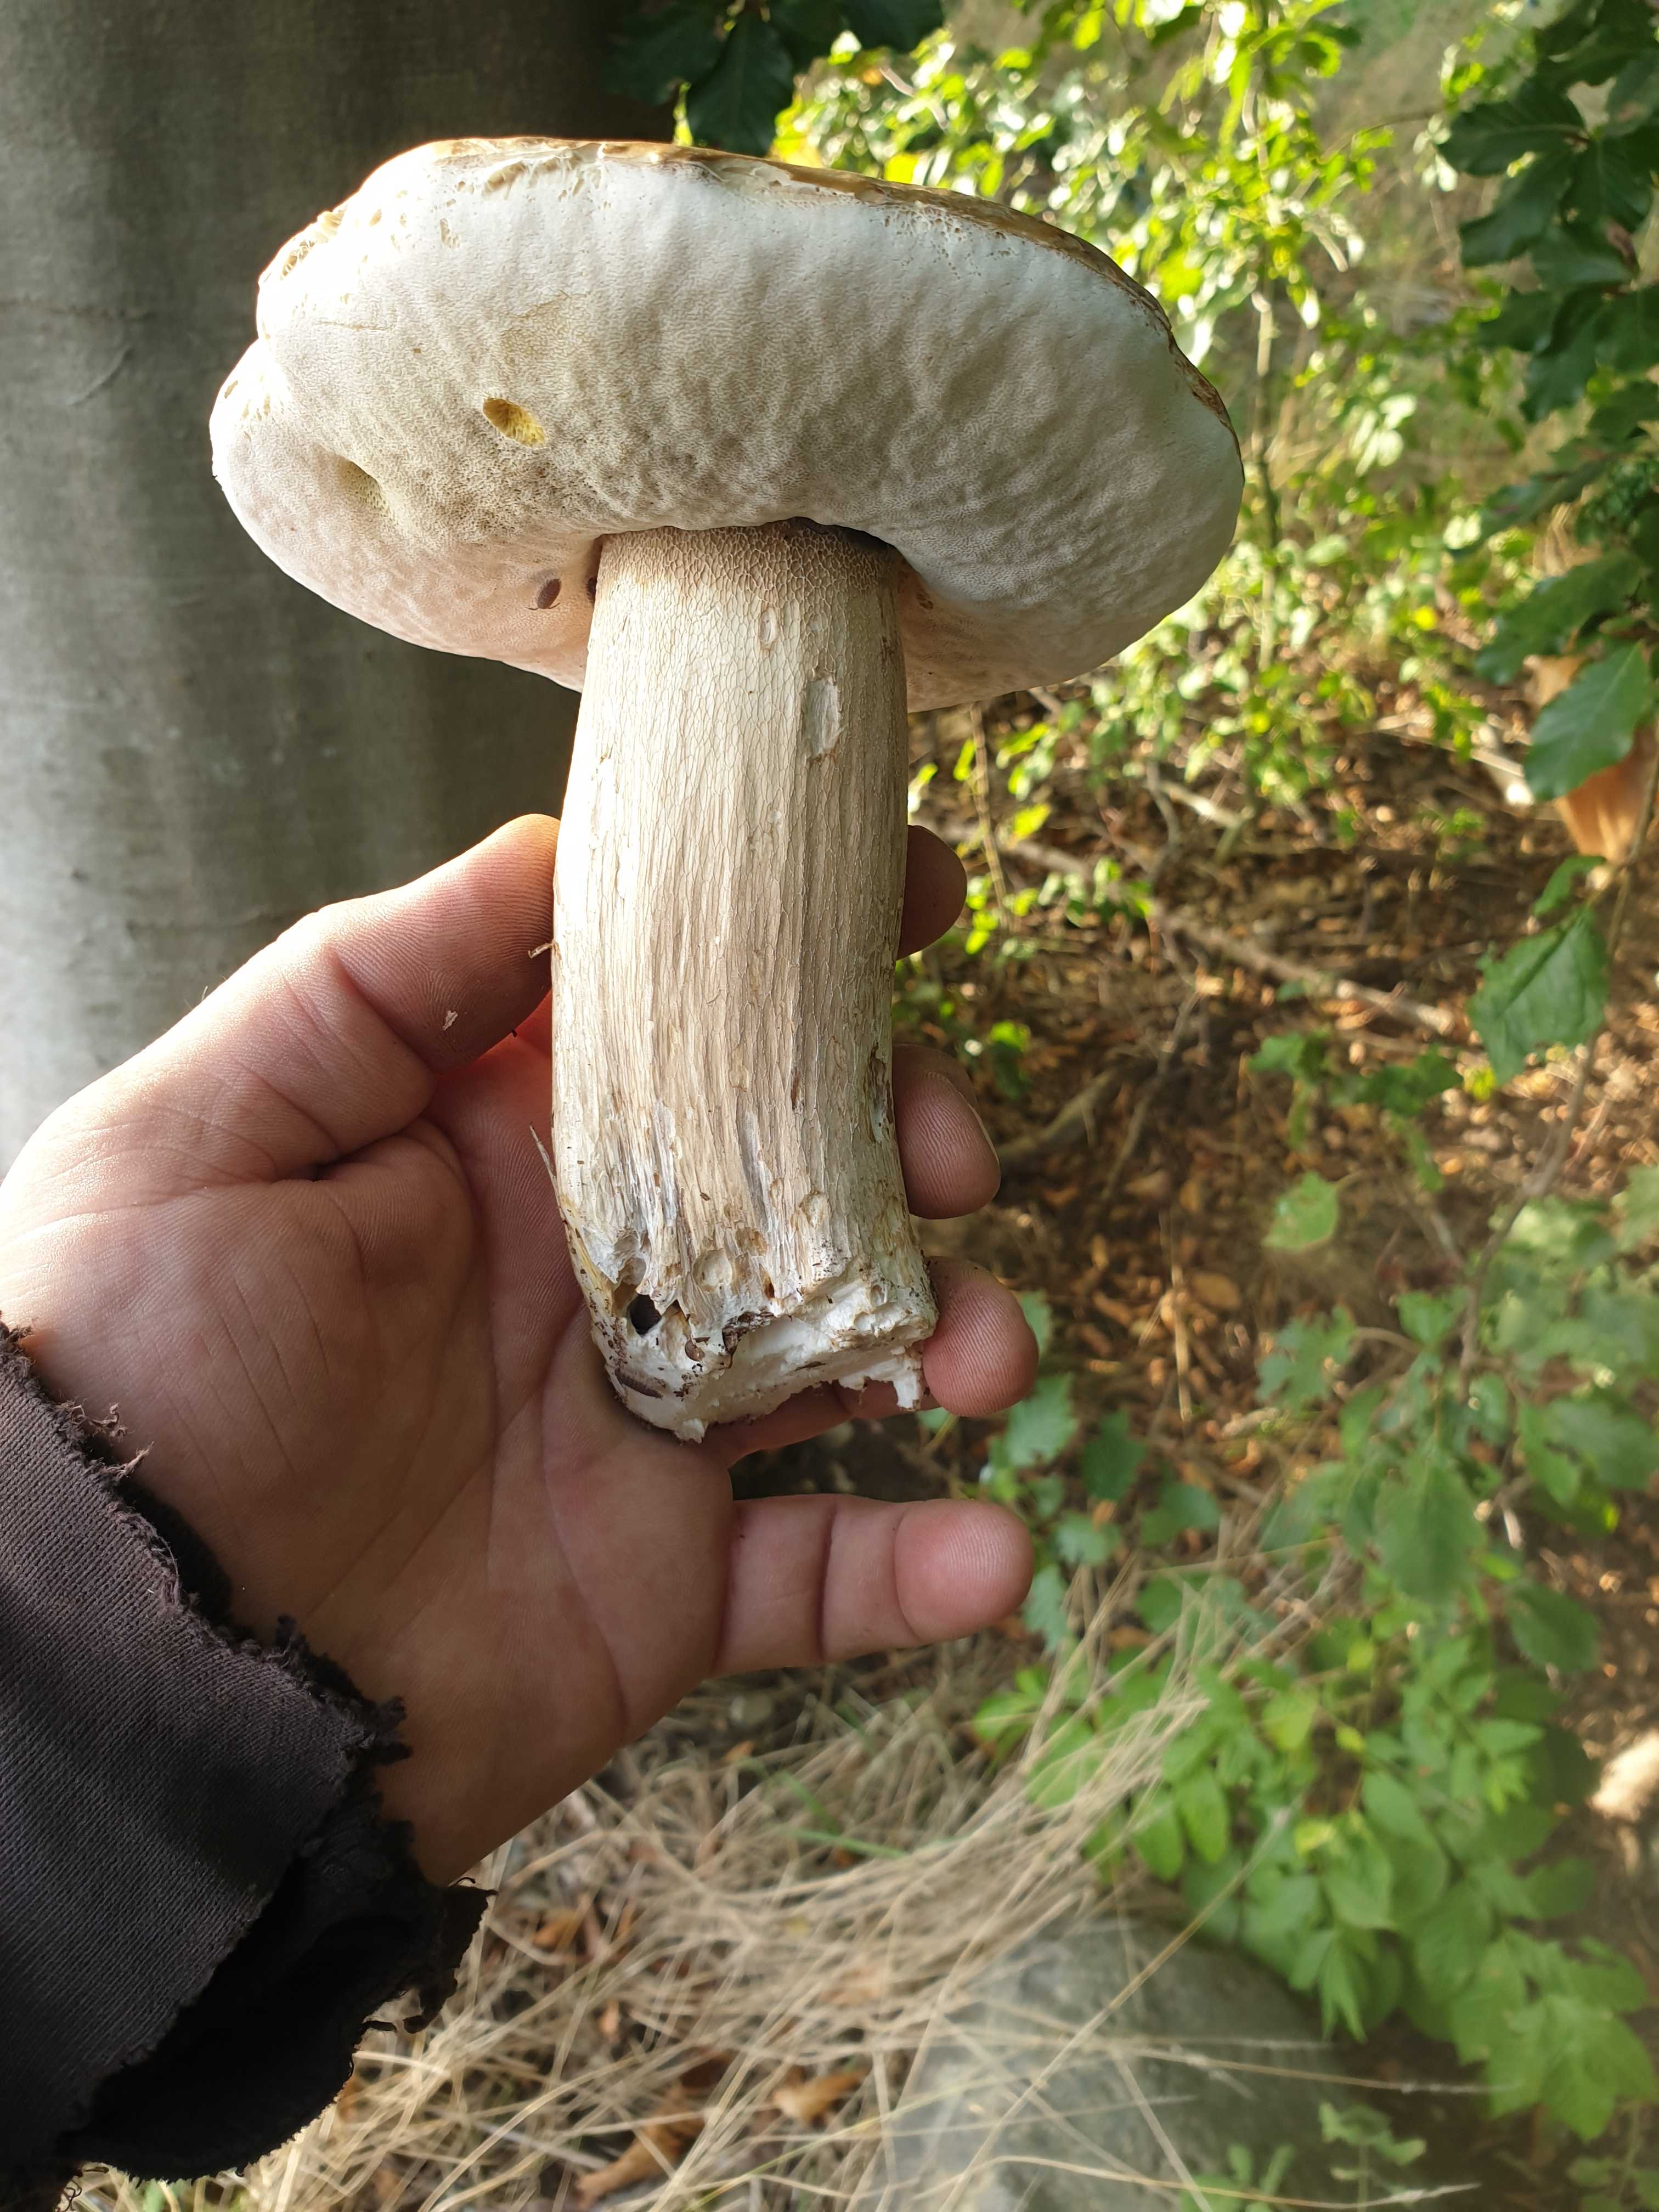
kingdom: Fungi
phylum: Basidiomycota
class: Agaricomycetes
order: Boletales
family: Boletaceae
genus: Boletus
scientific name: Boletus edulis
